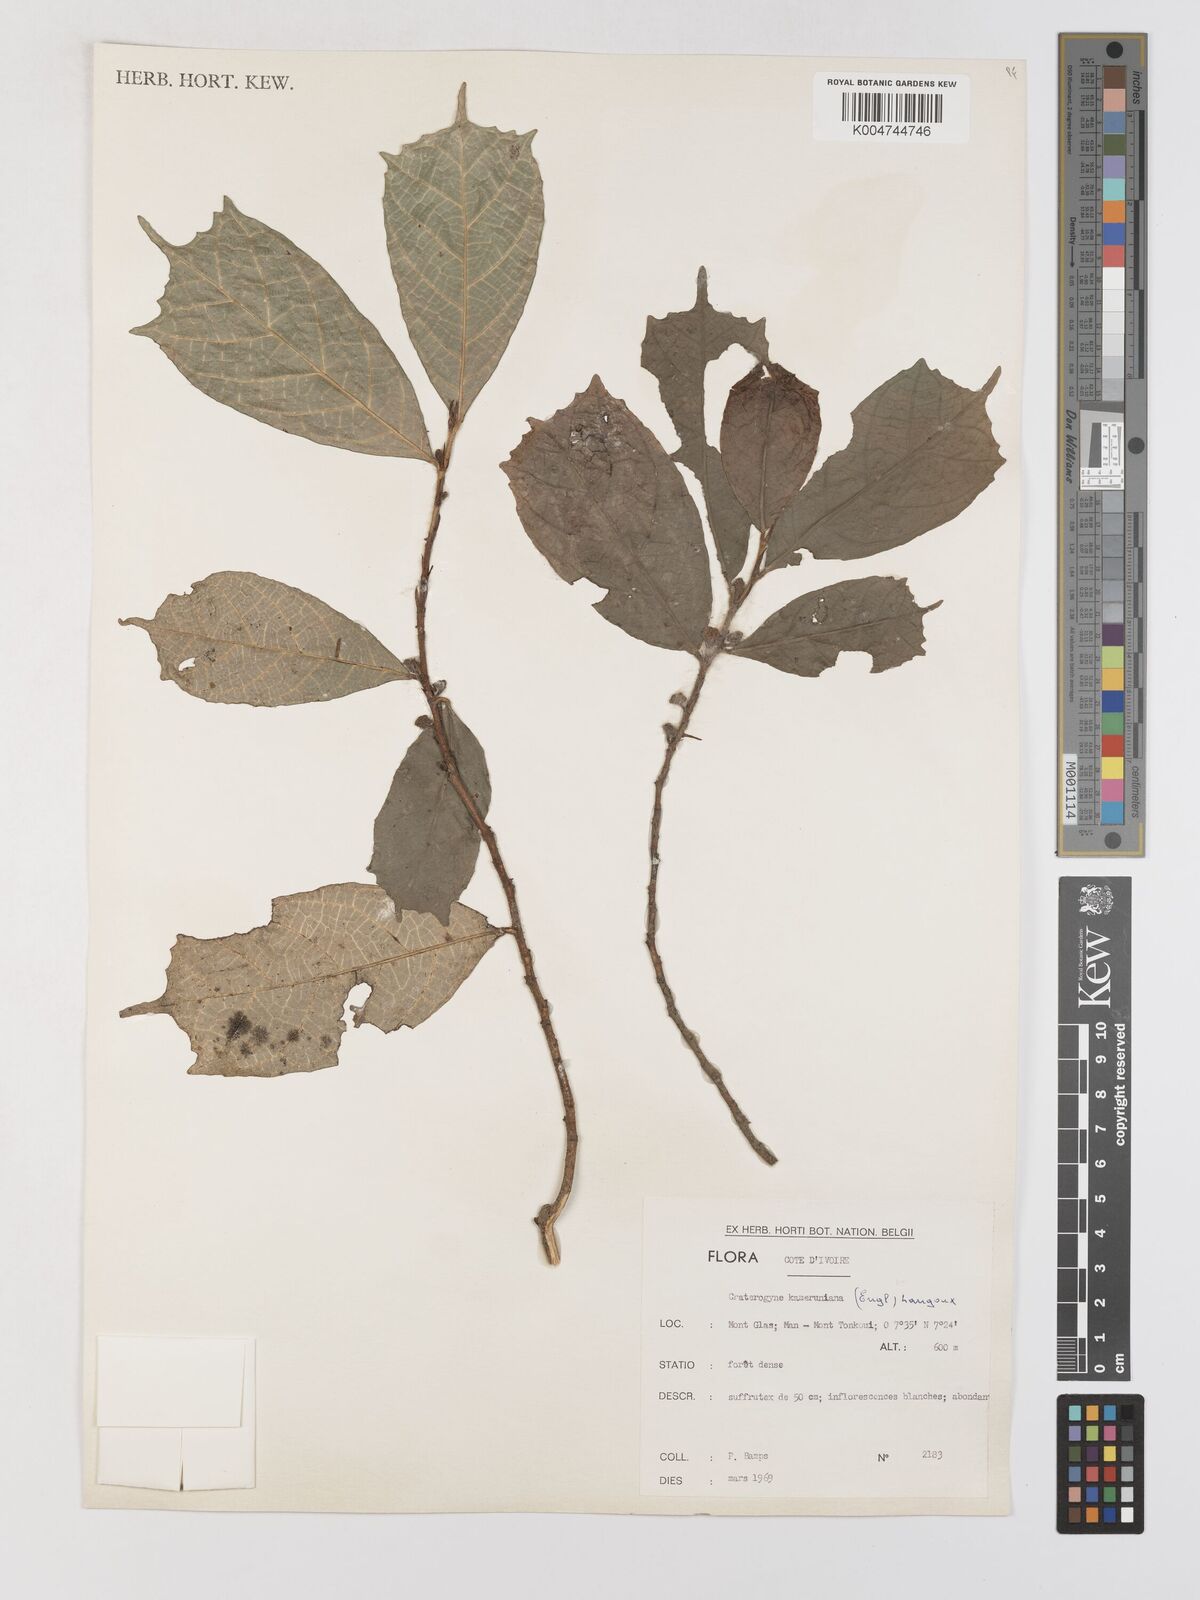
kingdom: Plantae
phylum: Tracheophyta
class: Magnoliopsida
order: Rosales
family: Moraceae
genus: Dorstenia
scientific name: Dorstenia kameruniana
